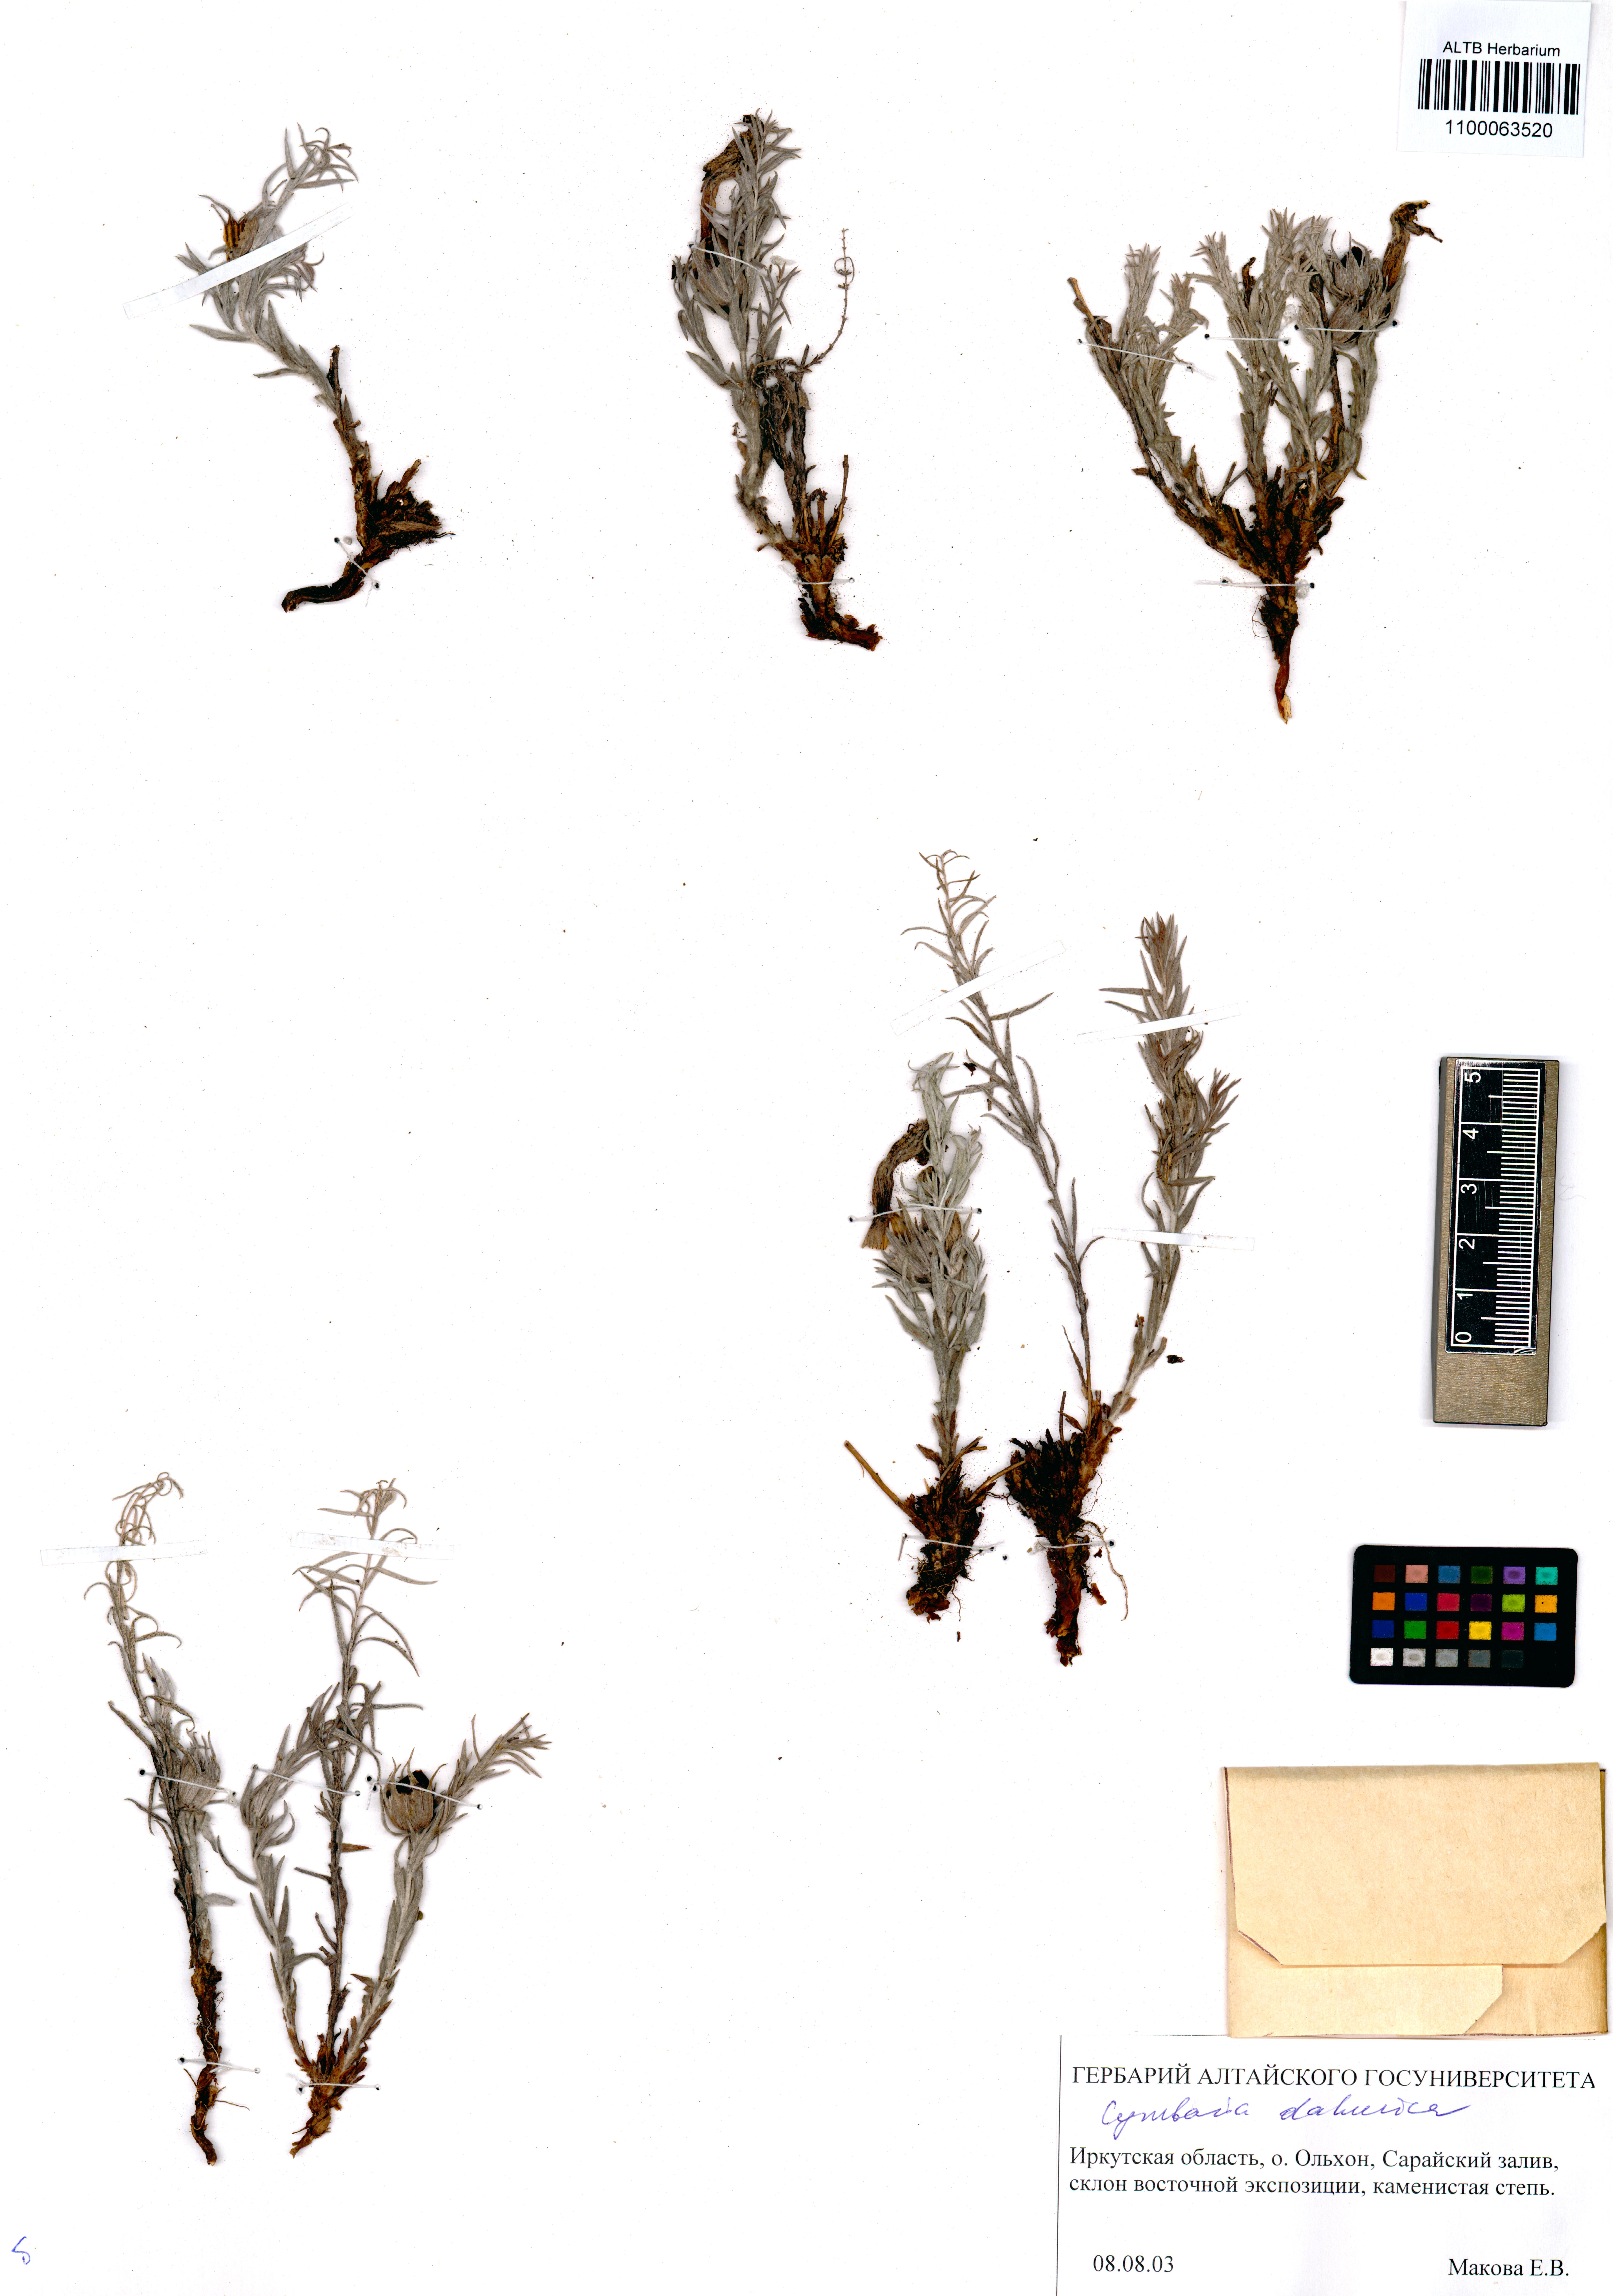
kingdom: Plantae
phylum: Tracheophyta
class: Magnoliopsida
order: Lamiales
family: Orobanchaceae
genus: Cymbaria
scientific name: Cymbaria daurica
